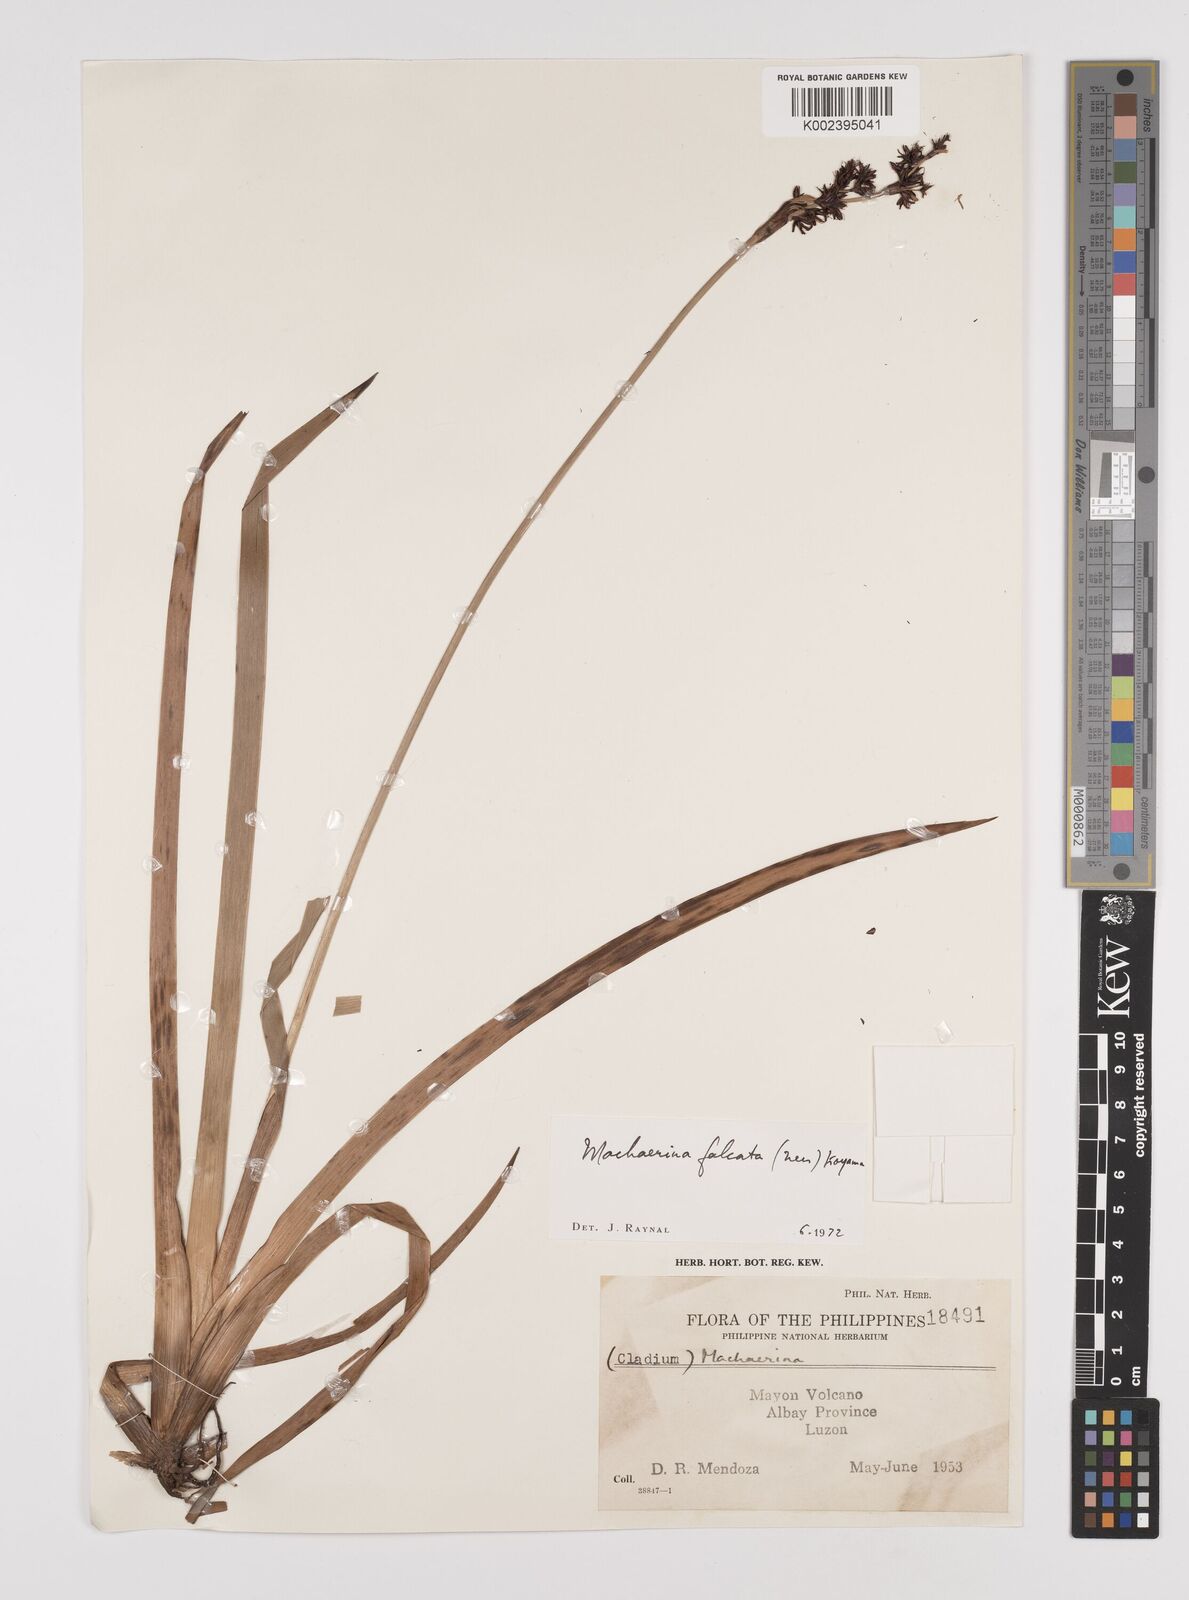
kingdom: Plantae
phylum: Tracheophyta
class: Liliopsida
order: Poales
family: Cyperaceae
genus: Machaerina
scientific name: Machaerina falcata
